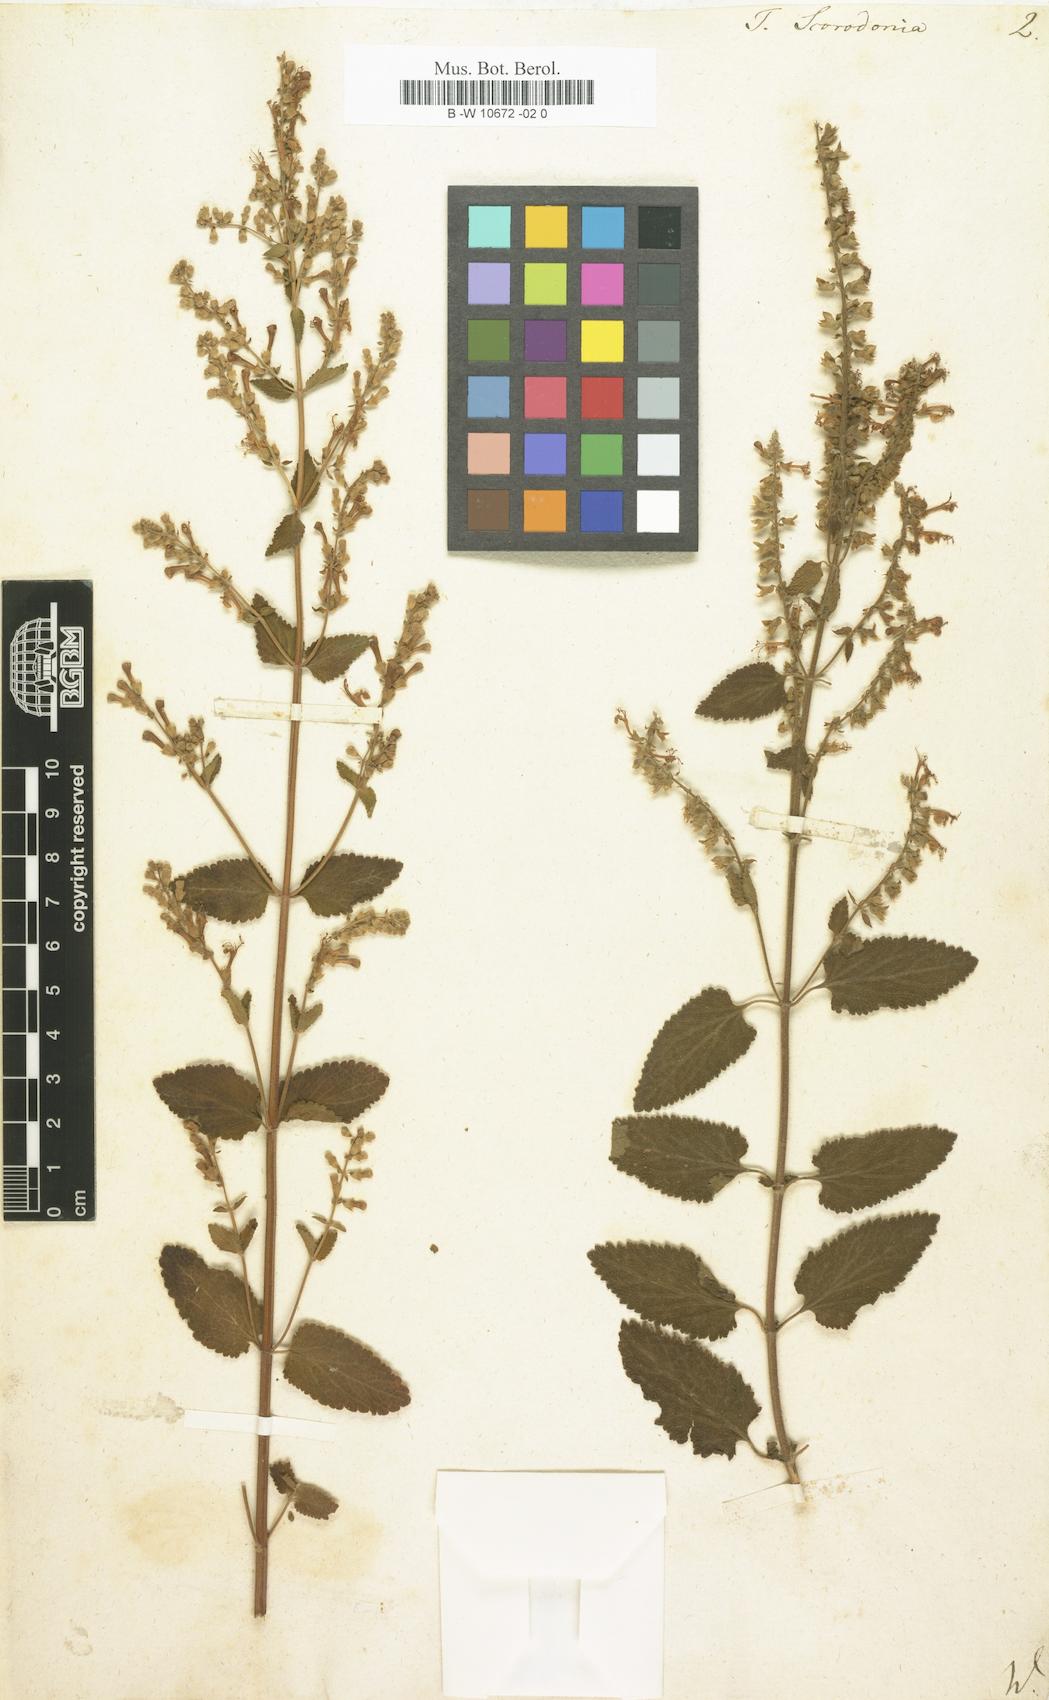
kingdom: Plantae
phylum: Tracheophyta
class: Magnoliopsida
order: Lamiales
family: Lamiaceae
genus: Teucrium
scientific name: Teucrium scorodonia
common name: Woodland germander
